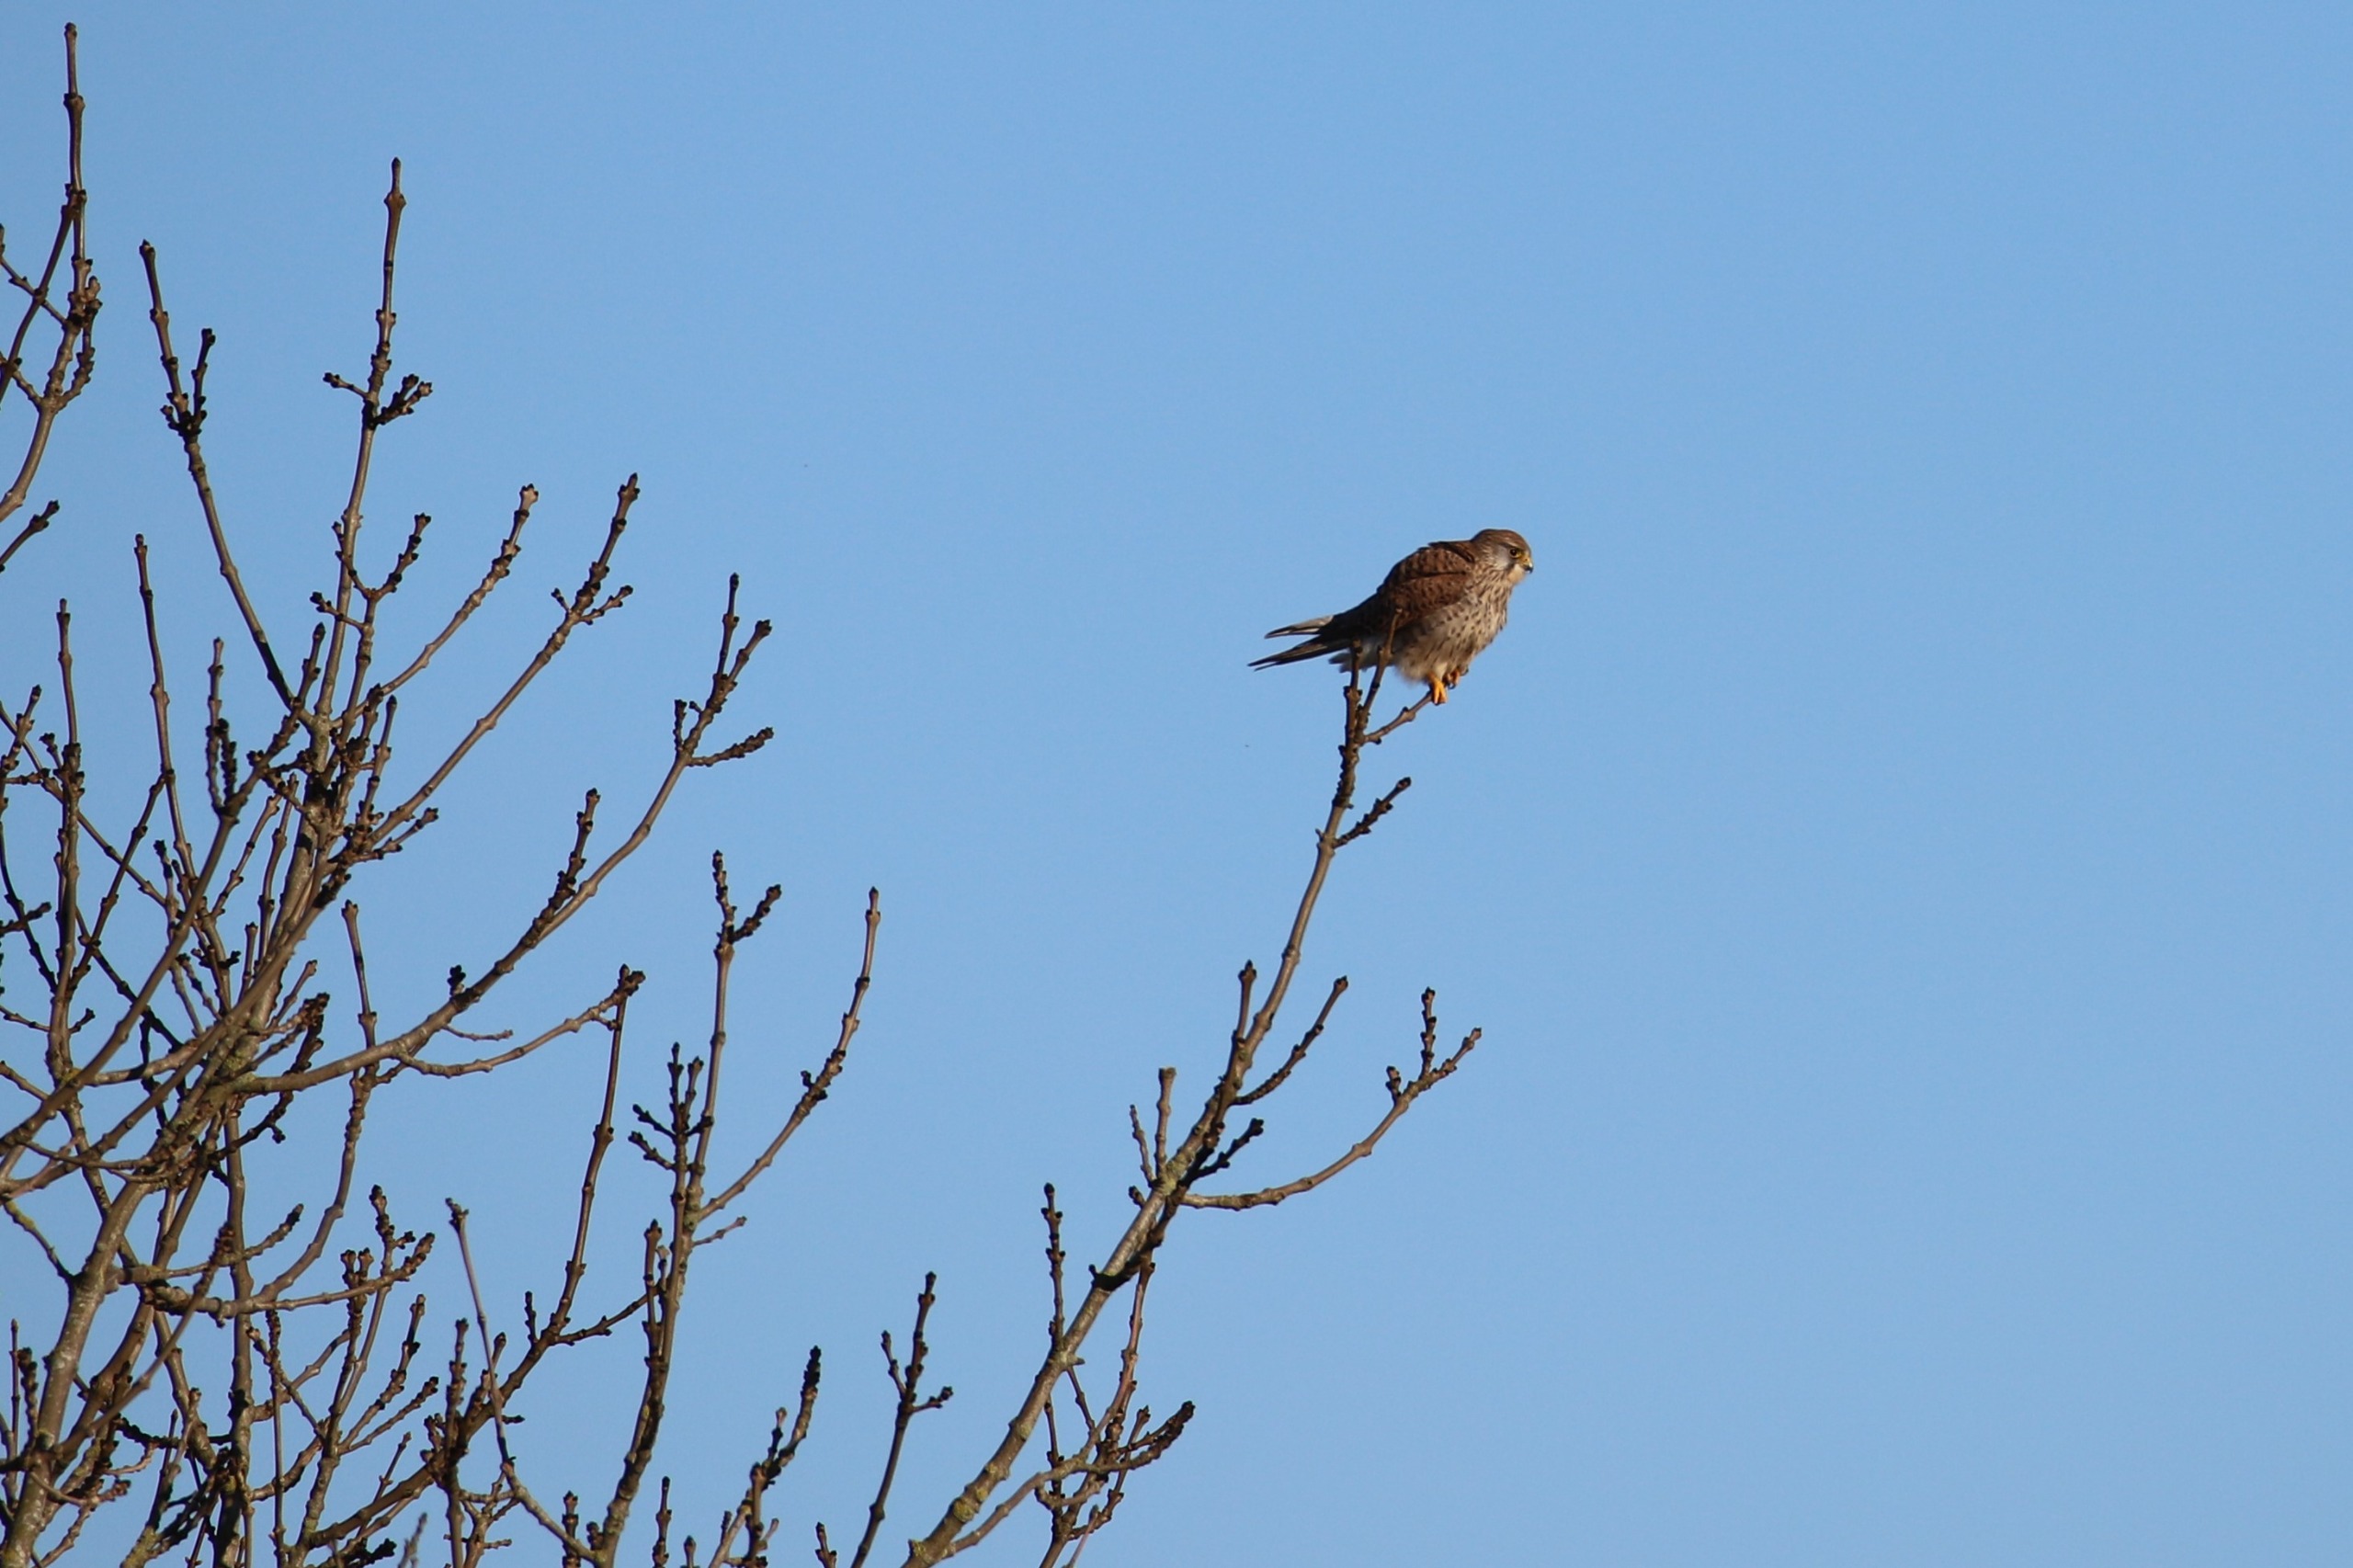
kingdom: Animalia
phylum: Chordata
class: Aves
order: Falconiformes
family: Falconidae
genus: Falco
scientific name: Falco tinnunculus
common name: Tårnfalk
